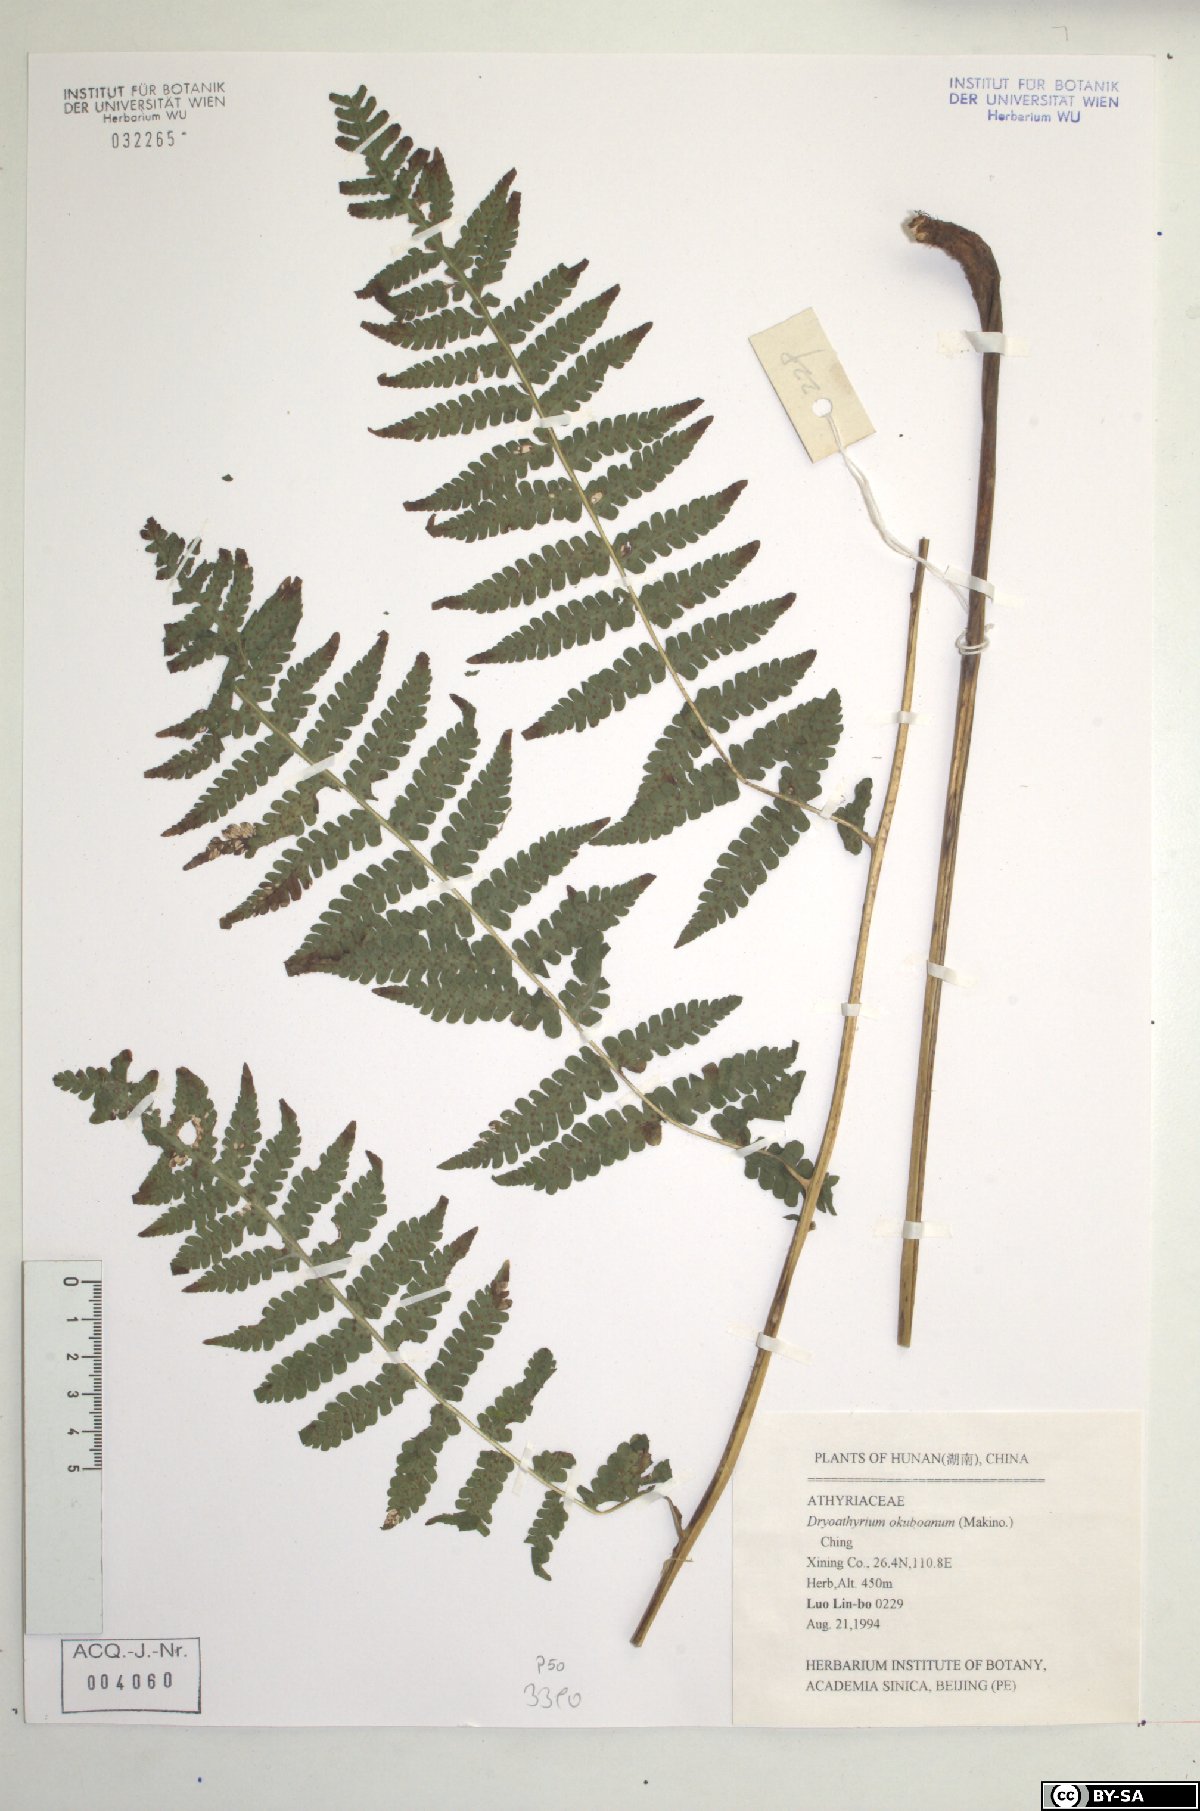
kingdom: Plantae
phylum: Tracheophyta
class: Polypodiopsida
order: Polypodiales
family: Athyriaceae
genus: Deparia
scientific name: Deparia okuboana
